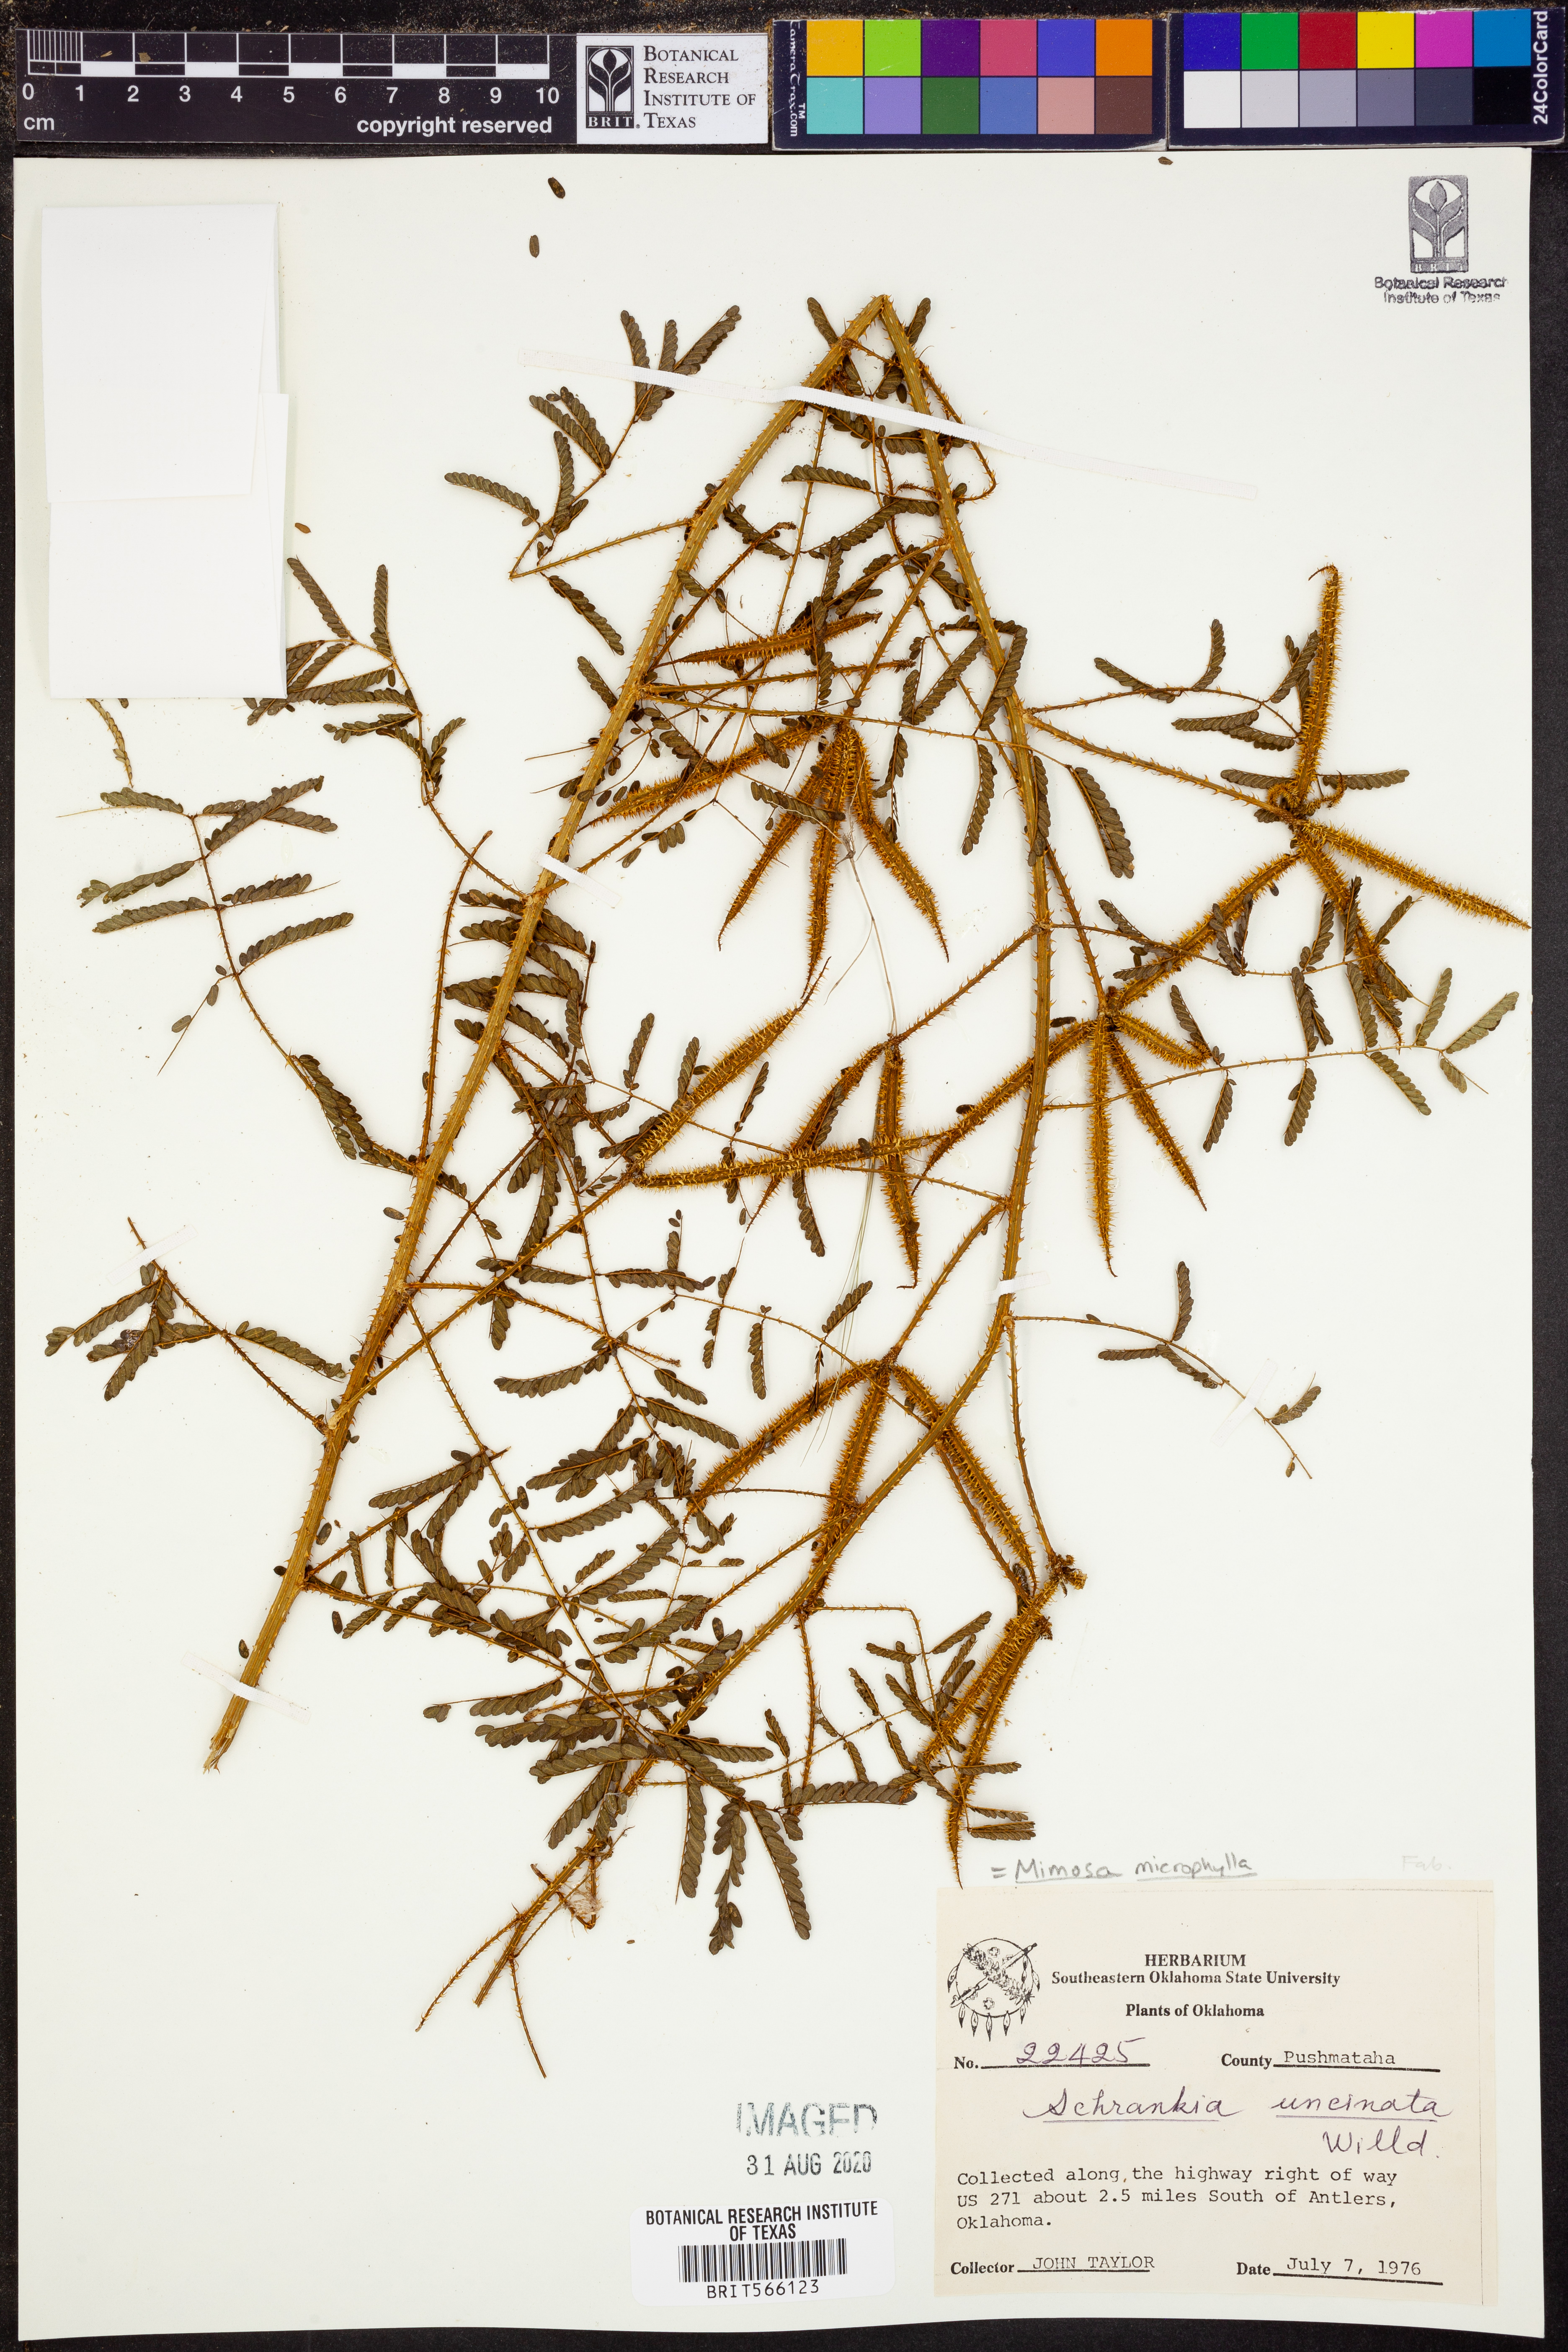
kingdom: Plantae
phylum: Tracheophyta
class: Magnoliopsida
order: Fabales
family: Fabaceae
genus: Mimosa
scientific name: Mimosa quadrivalvis
